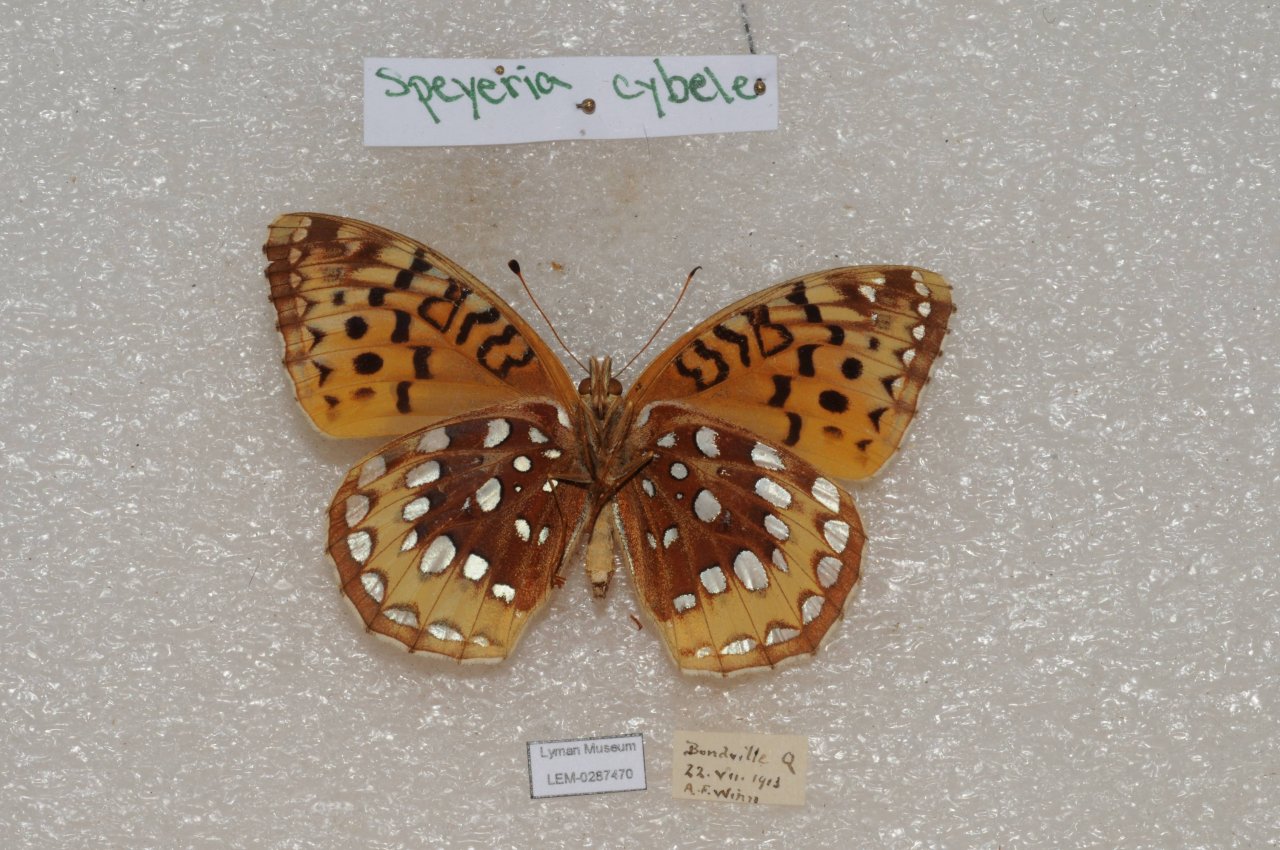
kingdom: Animalia
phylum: Arthropoda
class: Insecta
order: Lepidoptera
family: Nymphalidae
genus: Speyeria
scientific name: Speyeria cybele
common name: Great Spangled Fritillary
